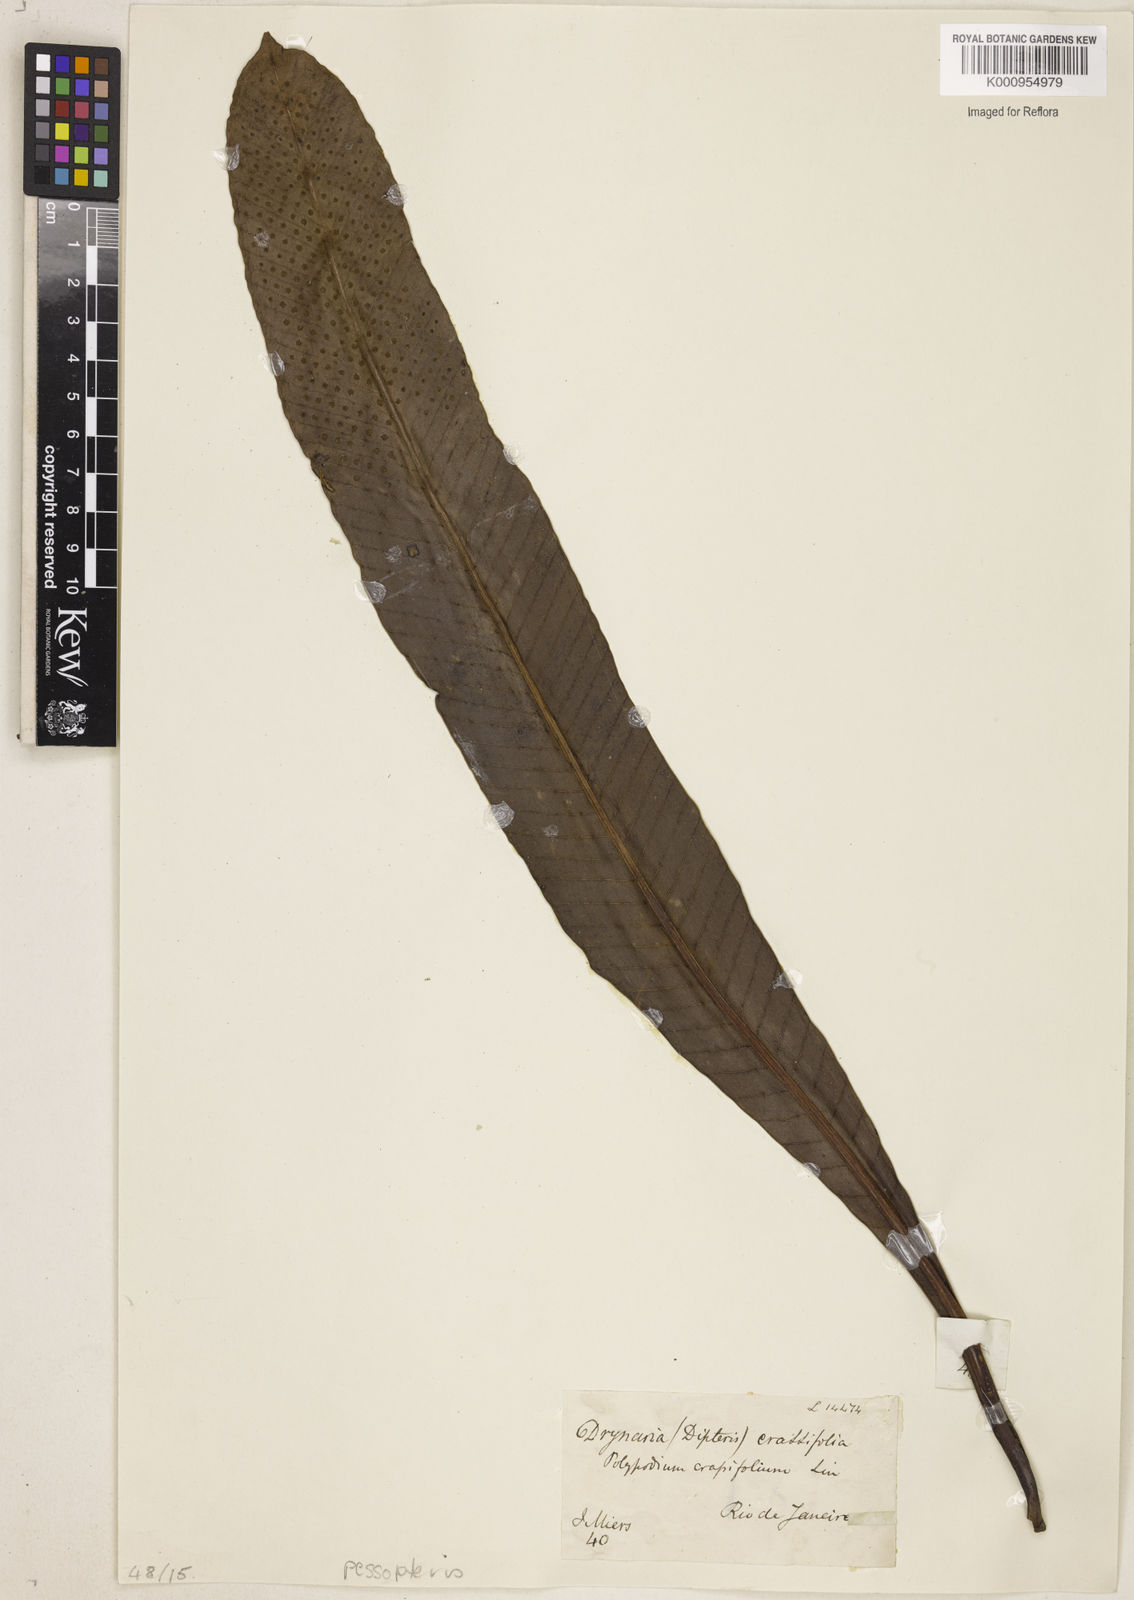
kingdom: Plantae
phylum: Tracheophyta
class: Polypodiopsida
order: Polypodiales
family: Polypodiaceae
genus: Niphidium
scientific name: Niphidium crassifolium
